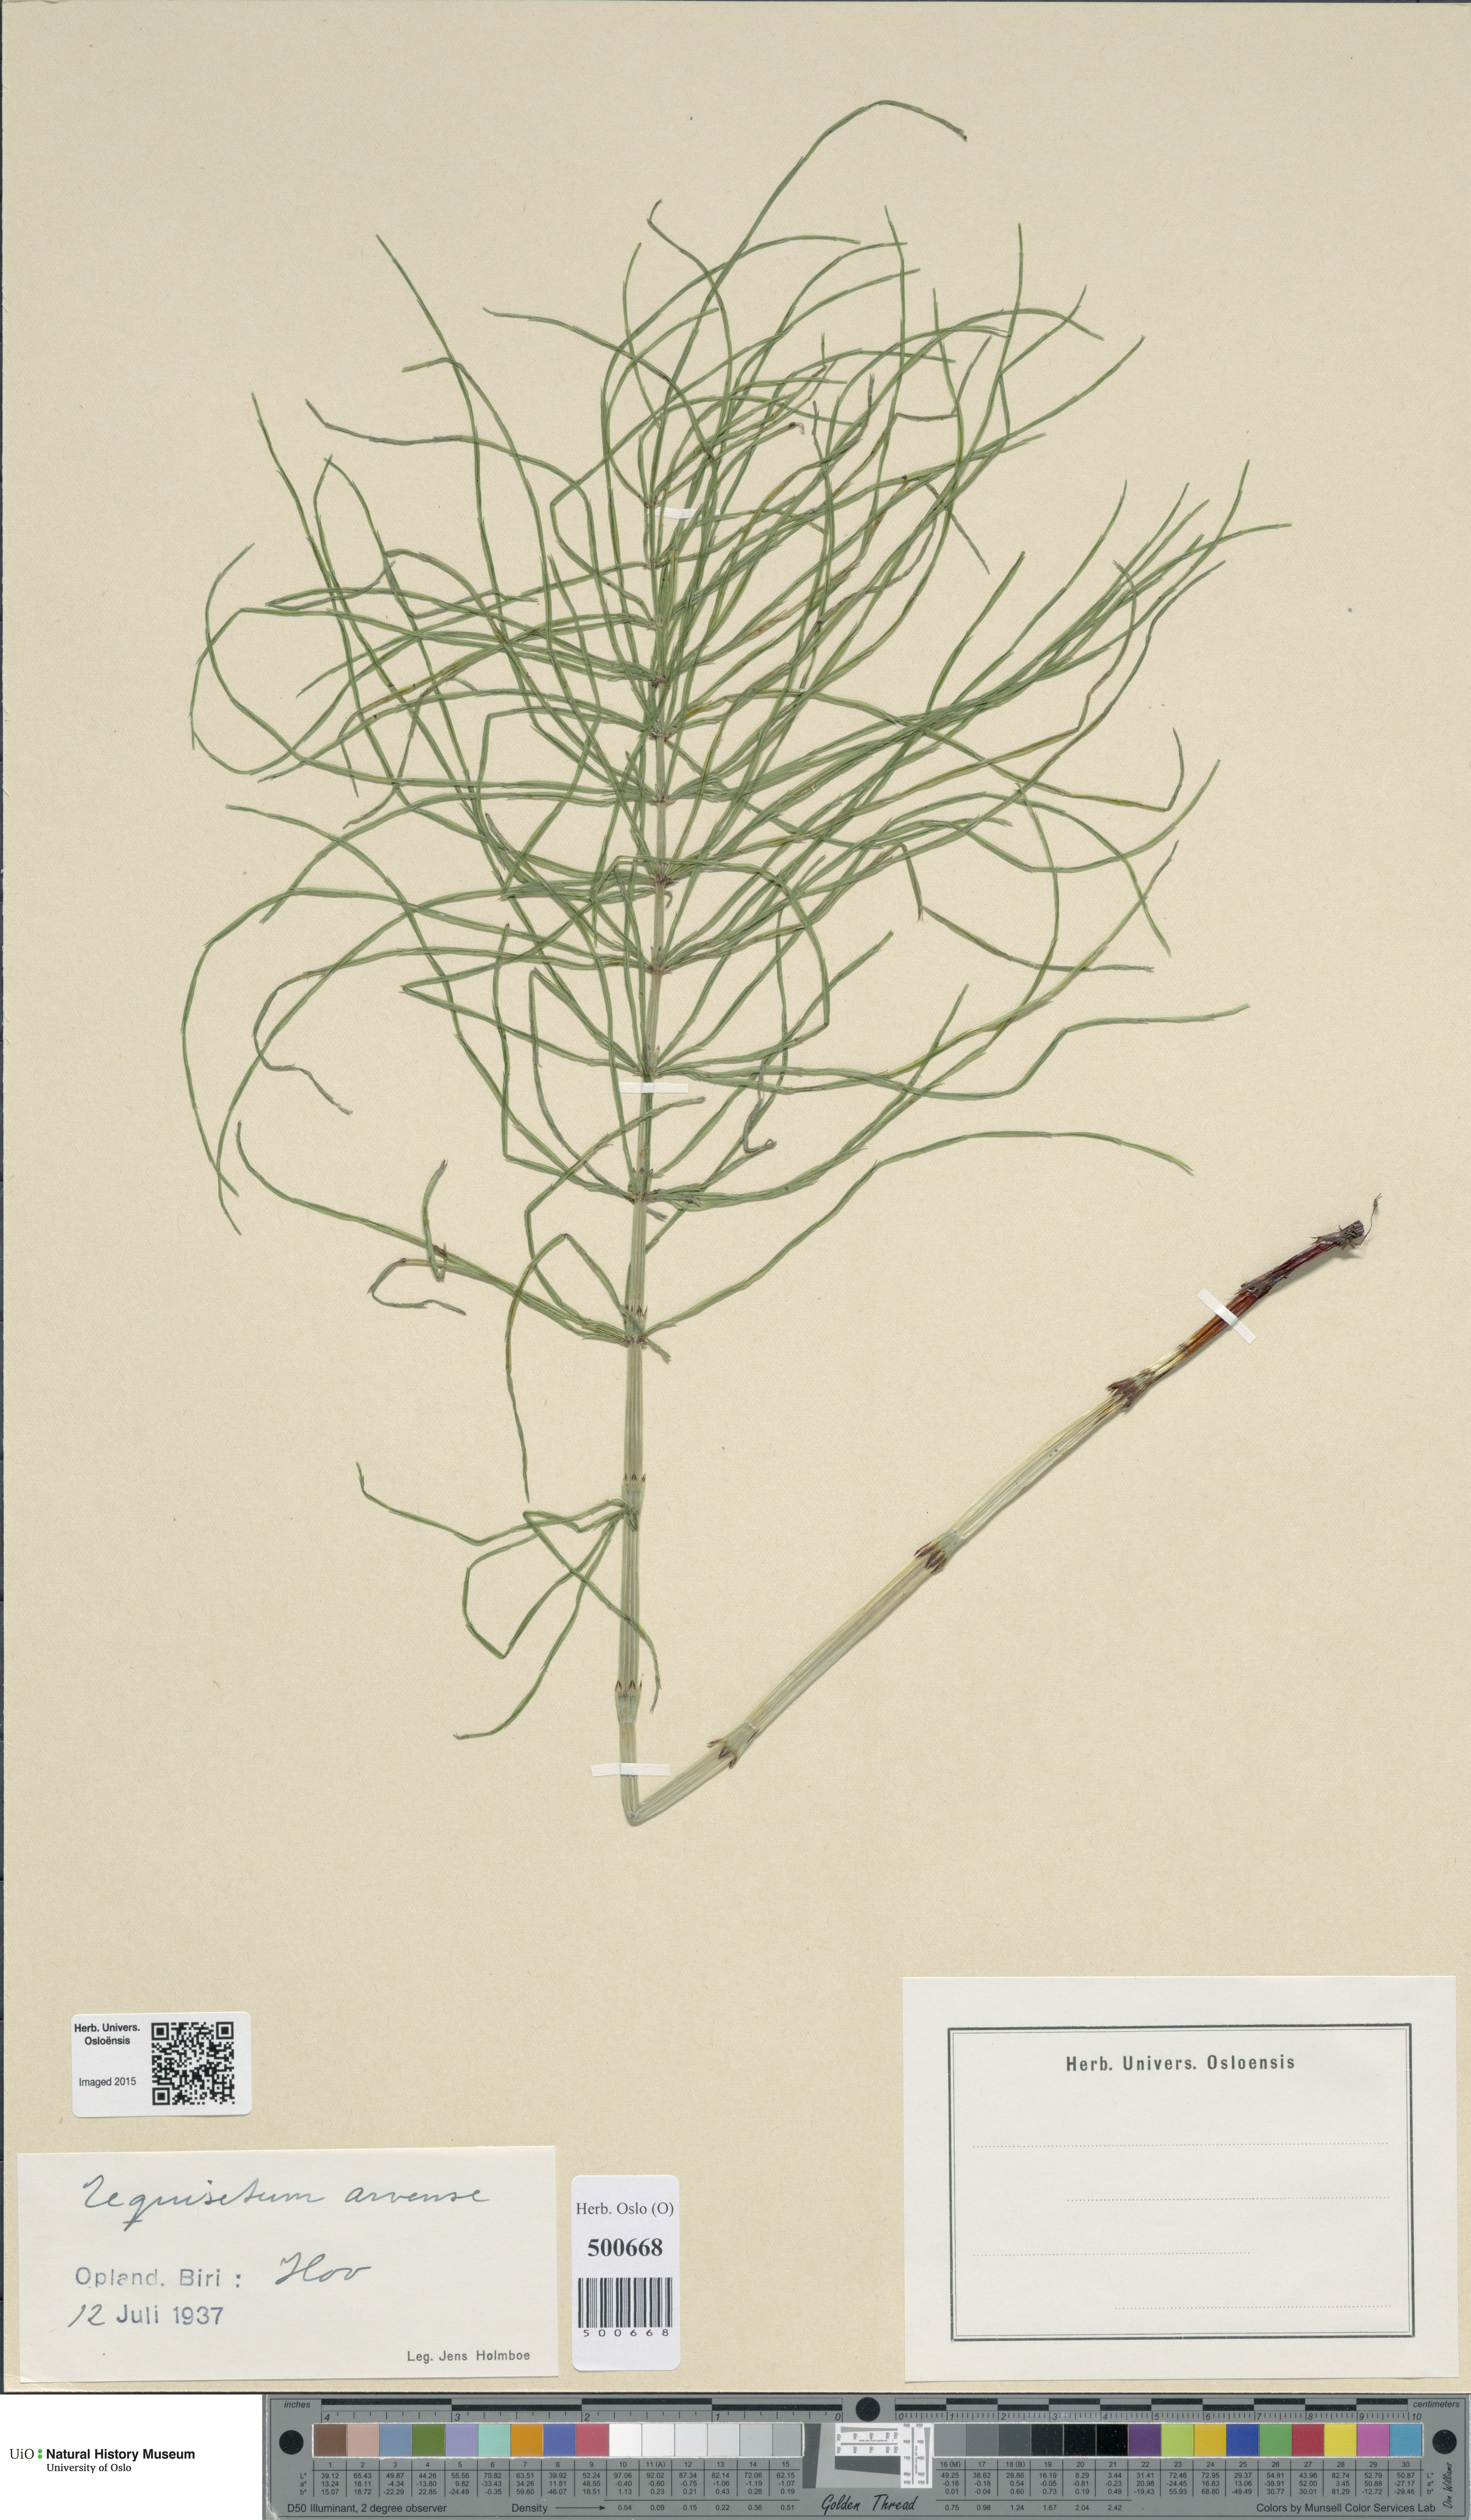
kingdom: Plantae
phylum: Tracheophyta
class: Polypodiopsida
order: Equisetales
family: Equisetaceae
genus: Equisetum
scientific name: Equisetum arvense
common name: Field horsetail
